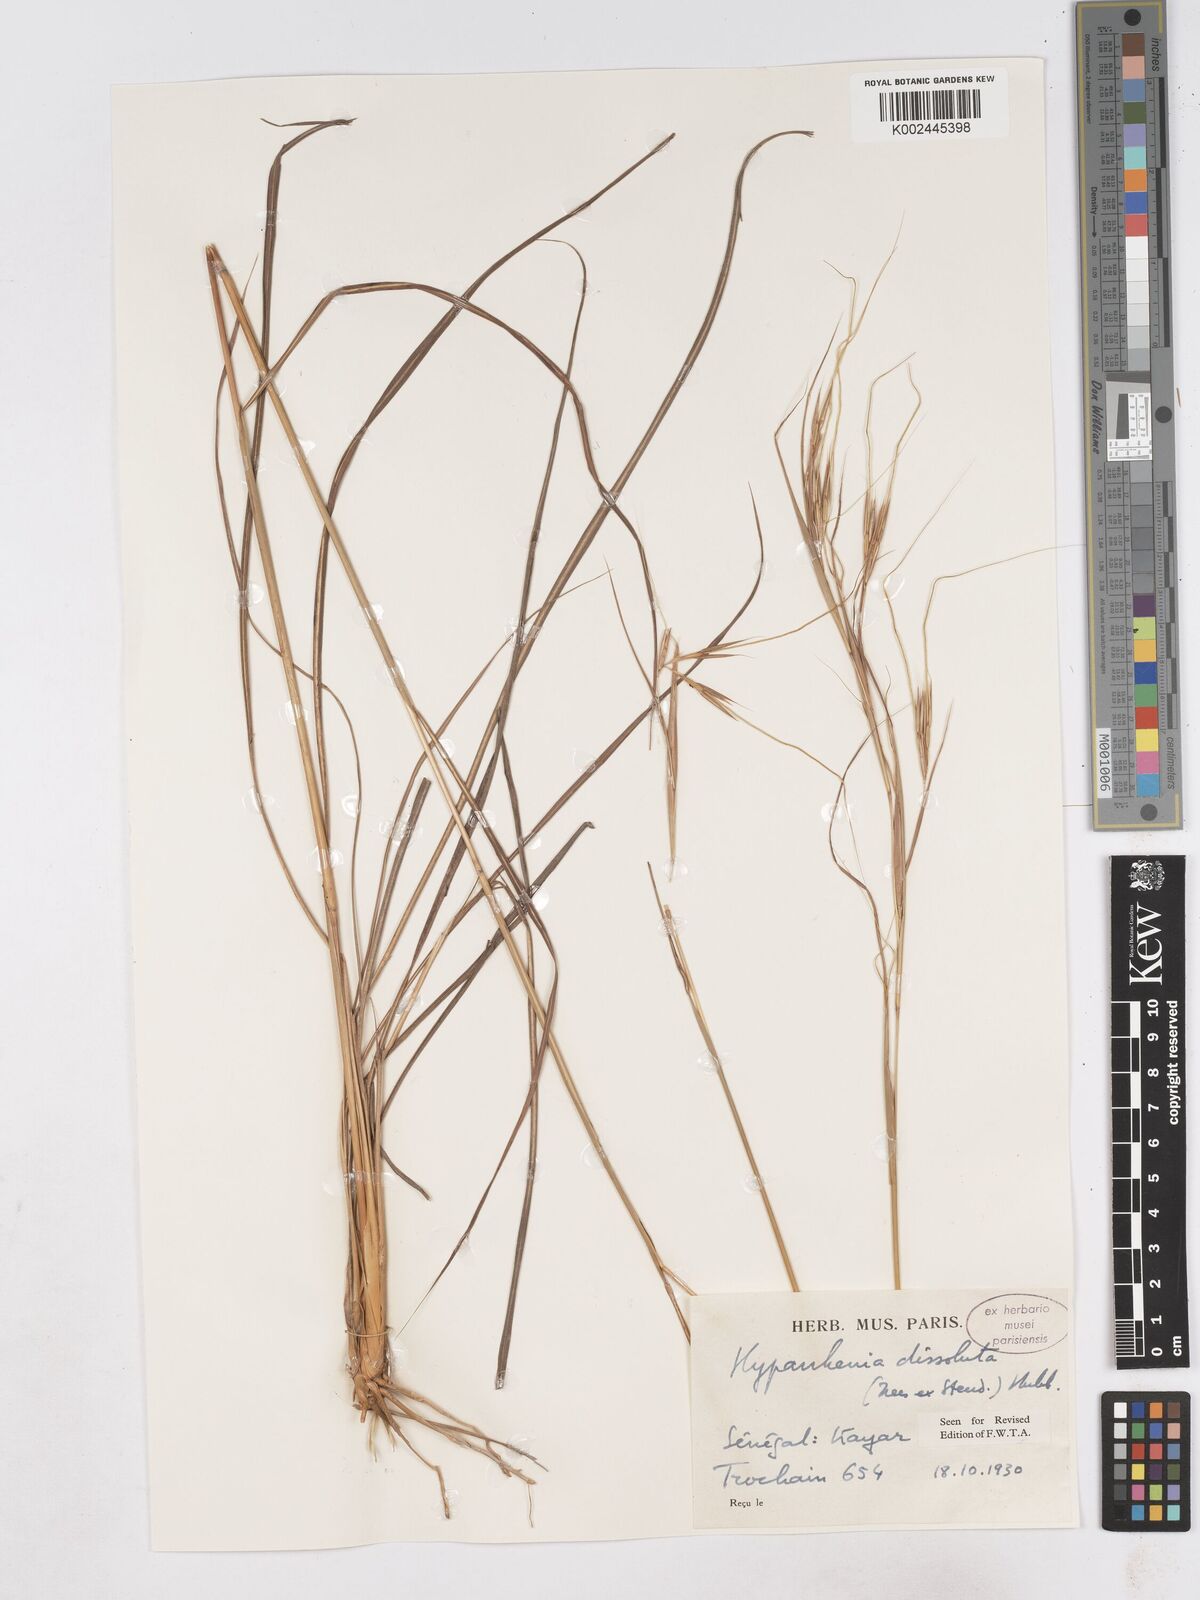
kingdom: Plantae
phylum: Tracheophyta
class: Liliopsida
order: Poales
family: Poaceae
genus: Hyperthelia
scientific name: Hyperthelia dissoluta
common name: Yellow thatching grass
